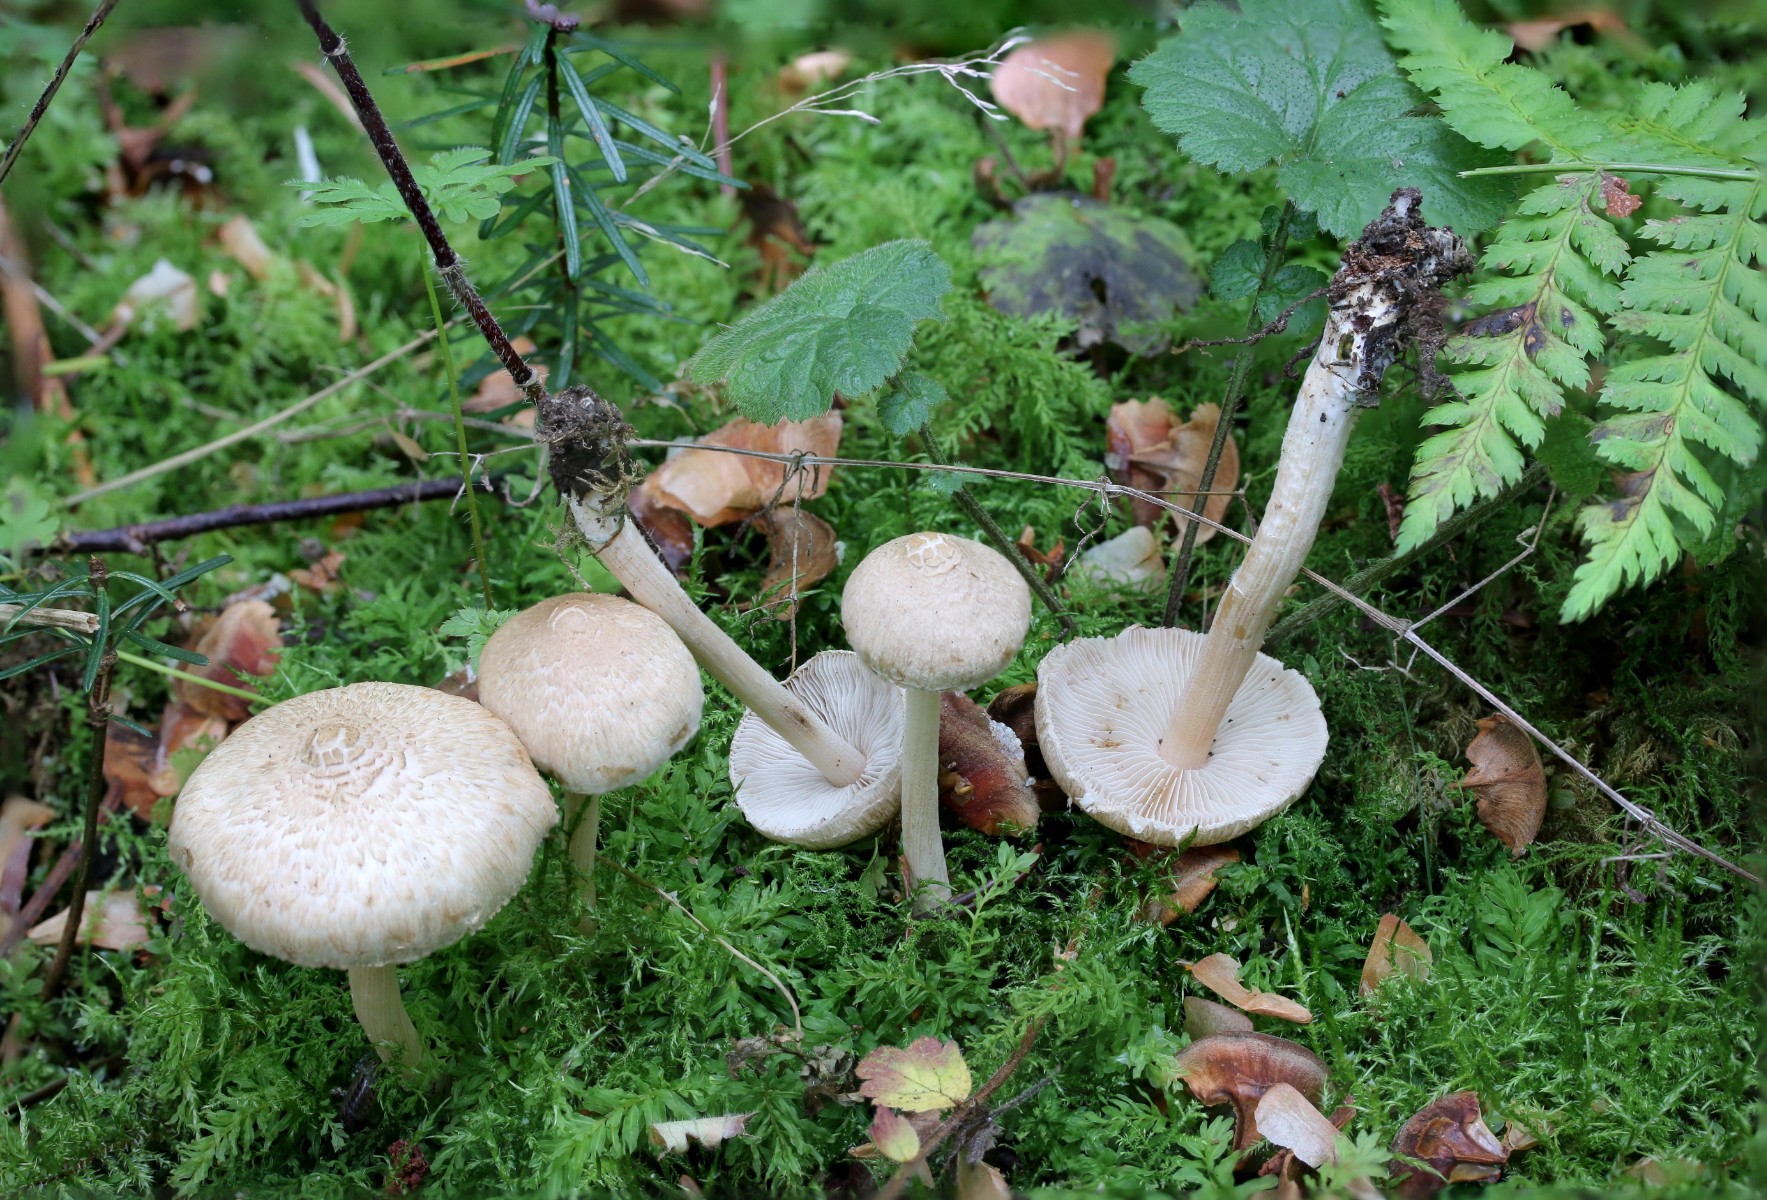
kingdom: Fungi
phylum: Basidiomycota
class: Agaricomycetes
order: Agaricales
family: Inocybaceae
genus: Inocybe
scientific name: Inocybe sindonia
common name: bleg trævlhat
